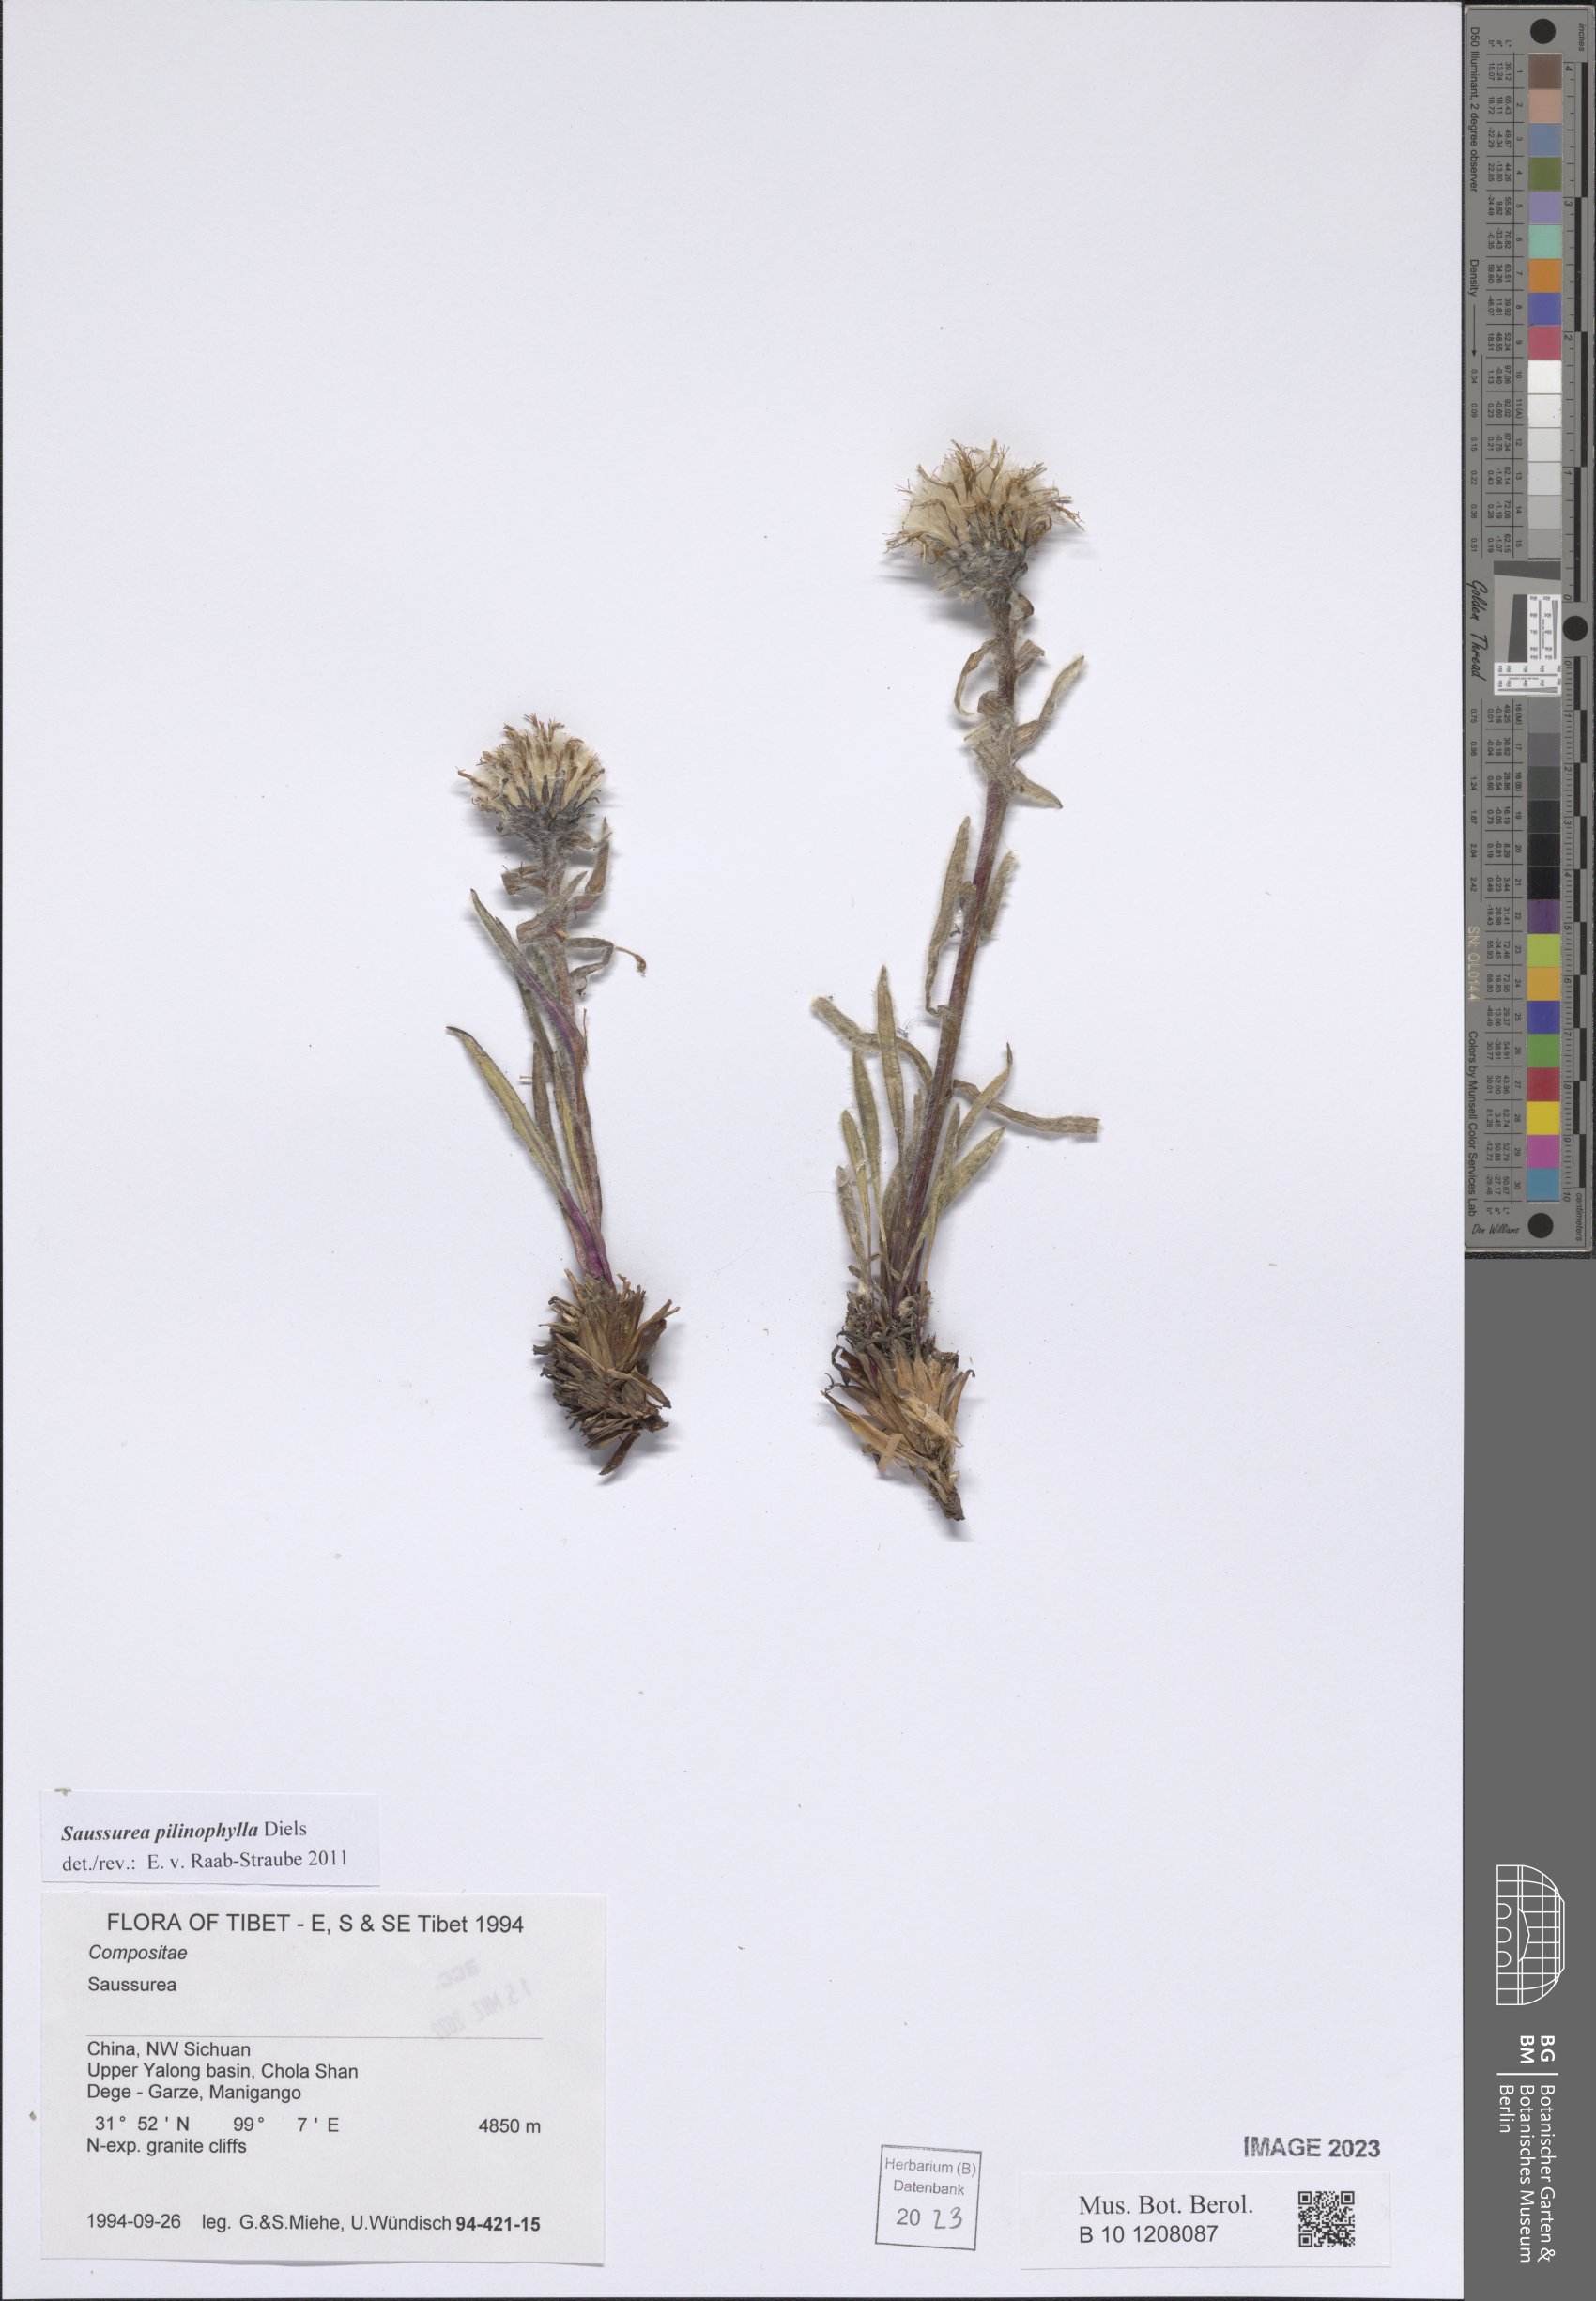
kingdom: Plantae
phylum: Tracheophyta
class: Magnoliopsida
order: Asterales
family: Asteraceae
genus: Saussurea
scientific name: Saussurea pilinophylla
